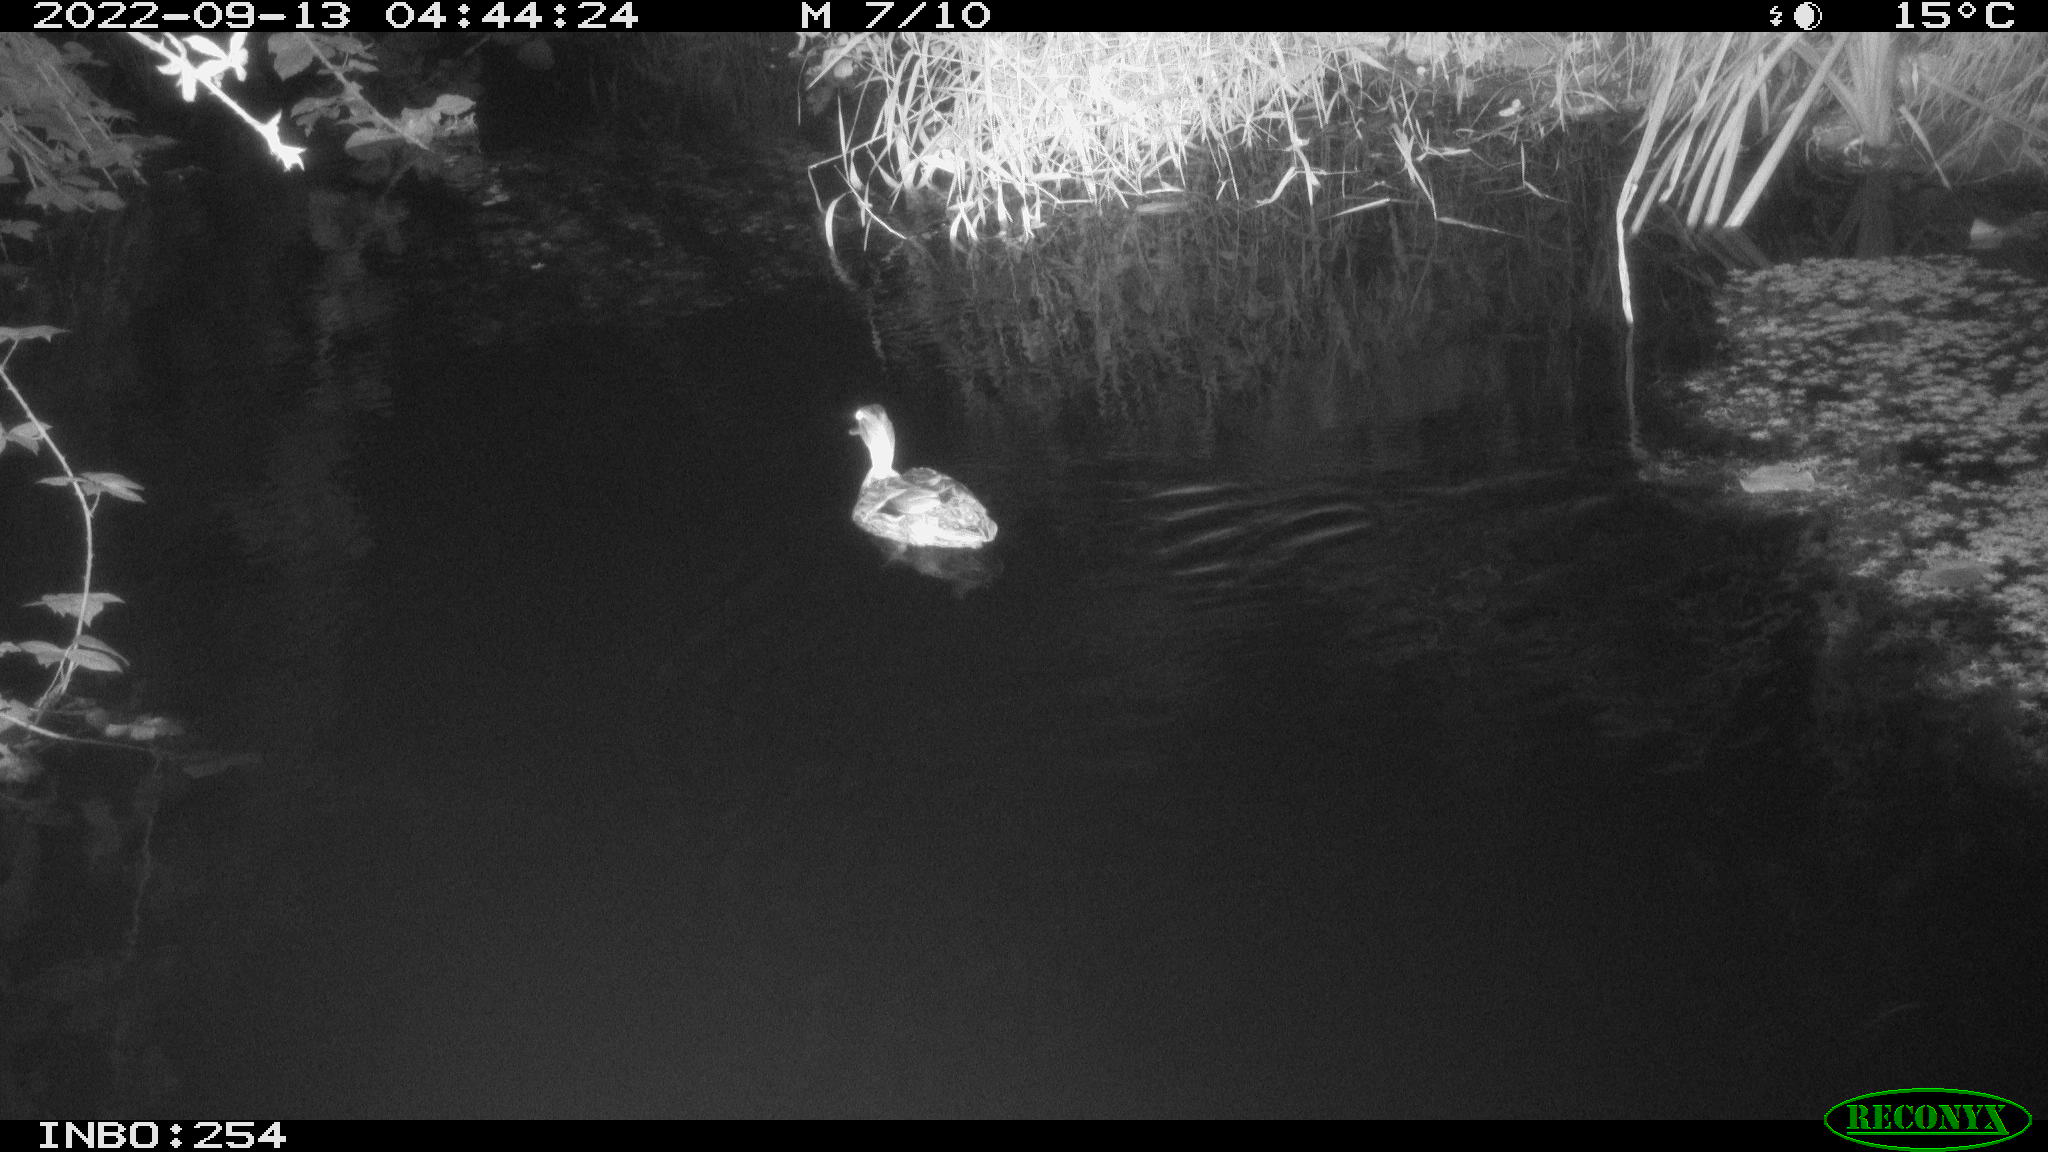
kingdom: Animalia
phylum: Chordata
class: Aves
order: Anseriformes
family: Anatidae
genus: Anas
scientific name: Anas
